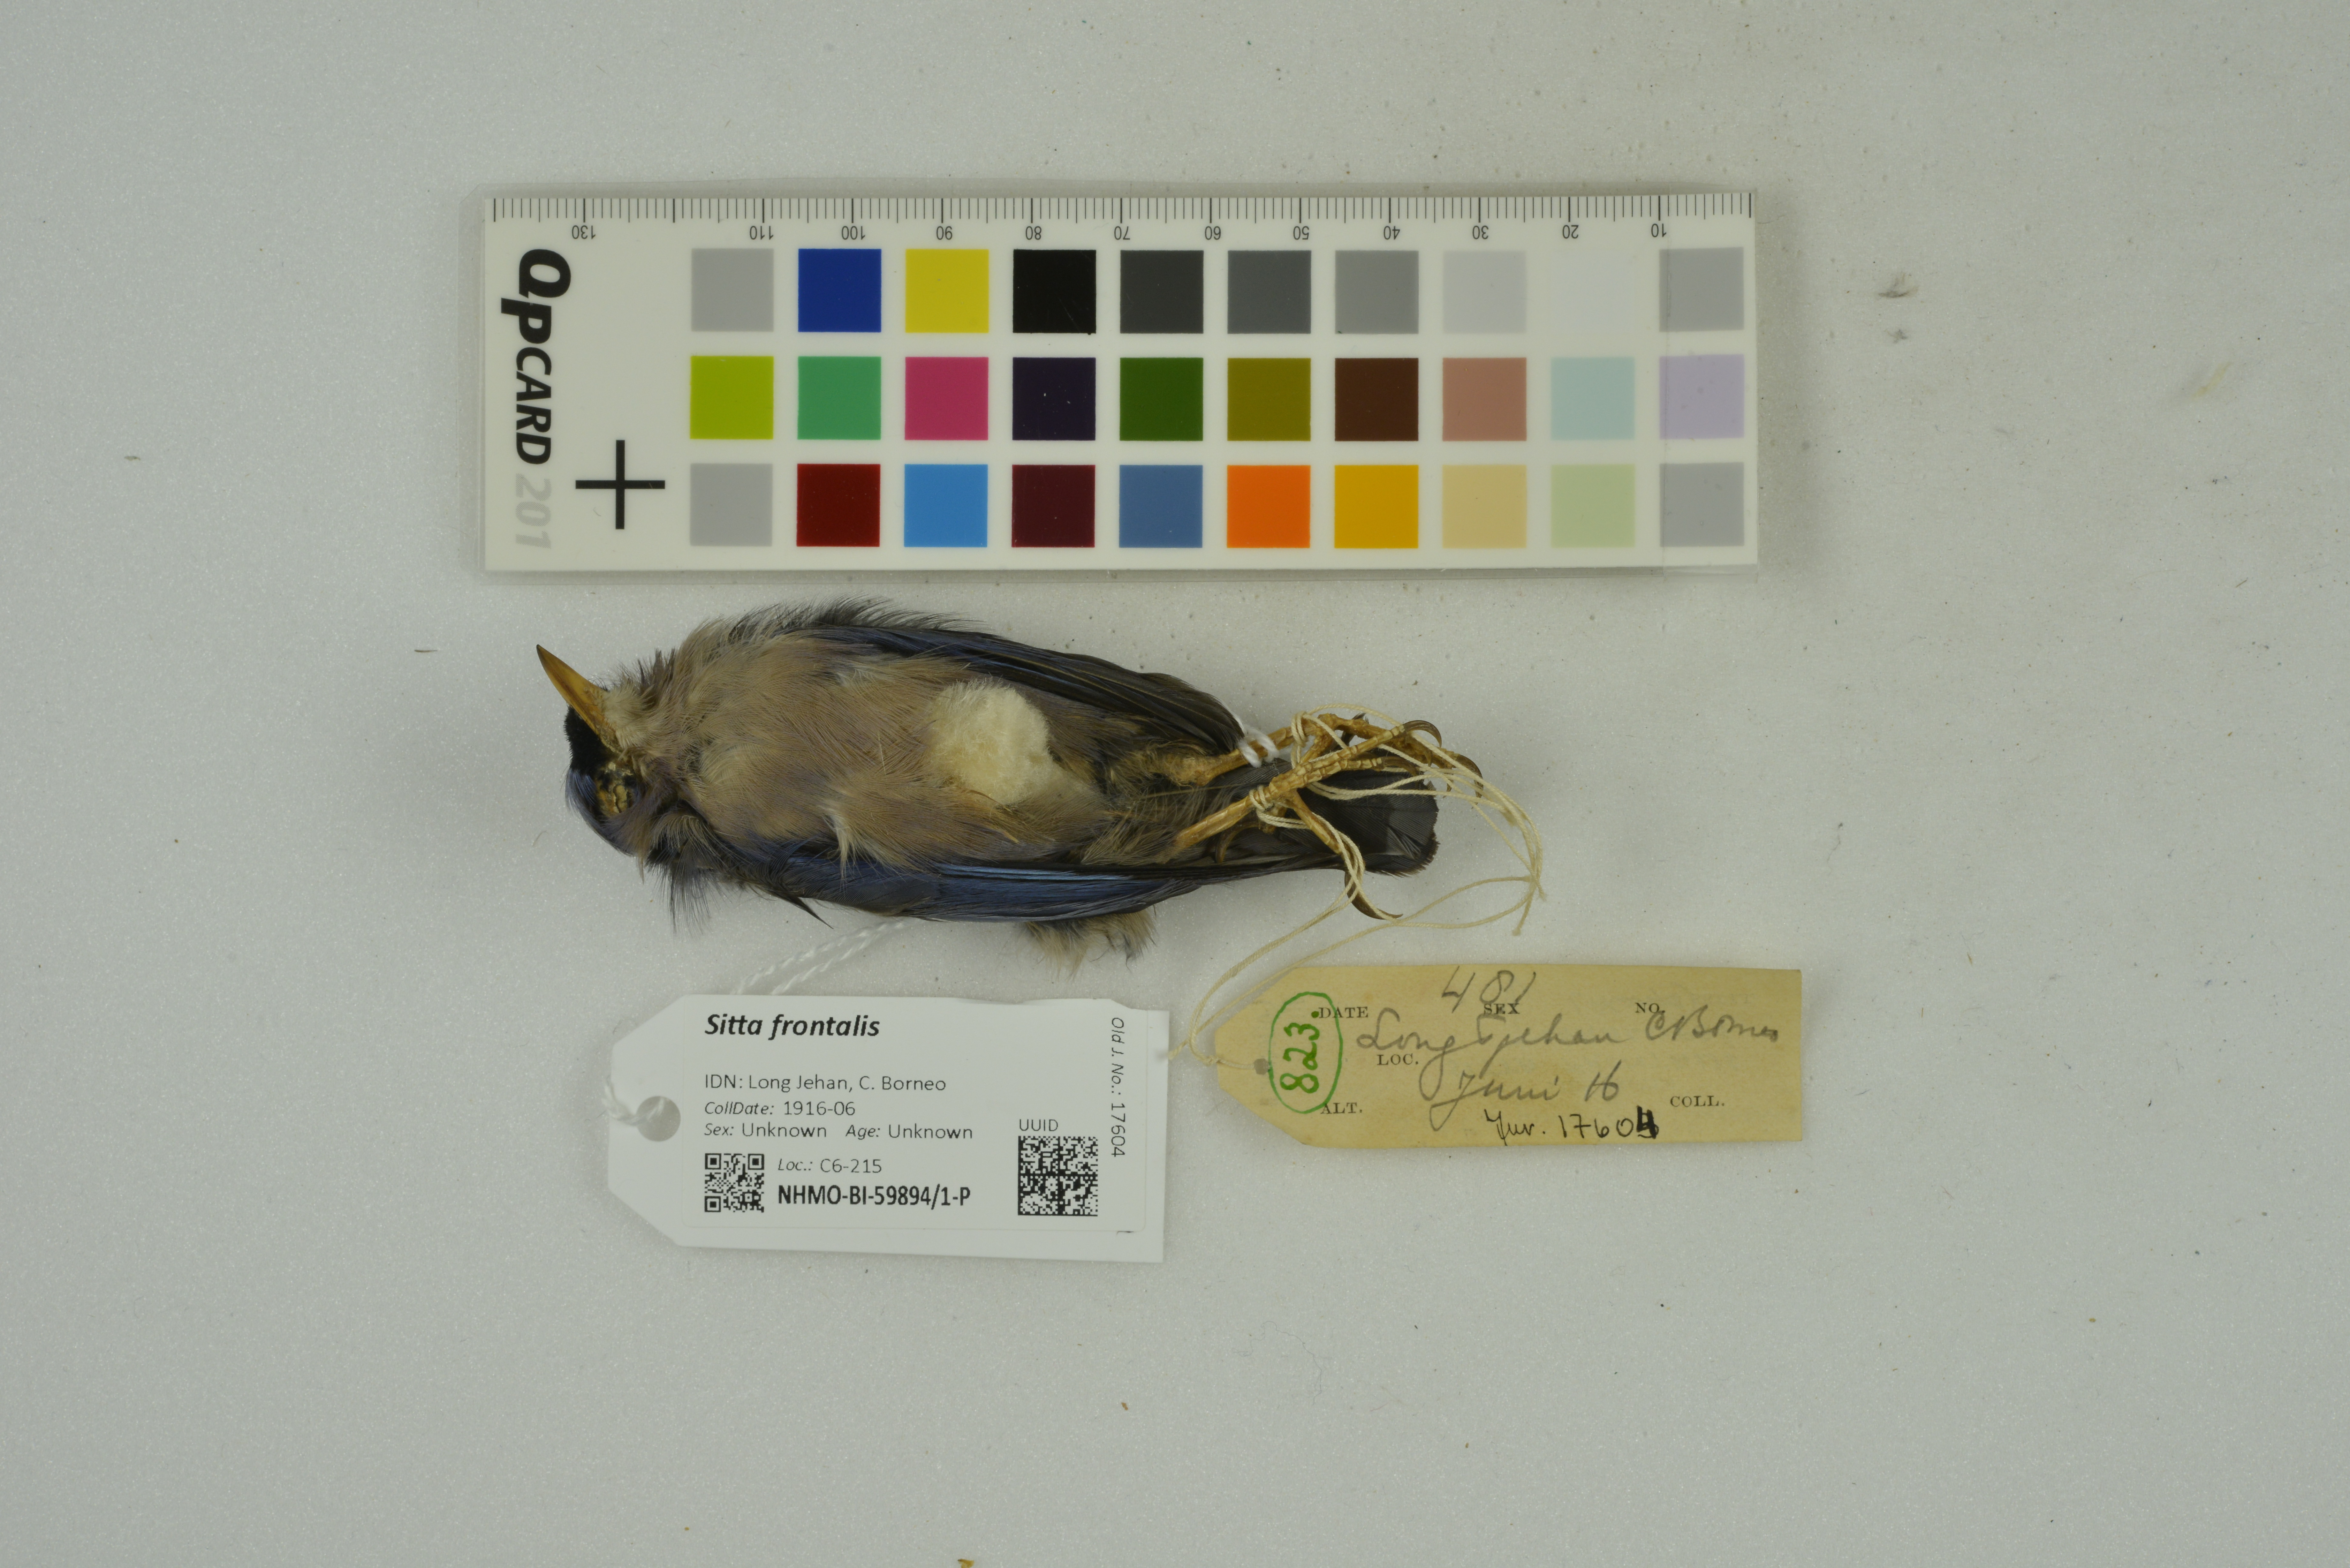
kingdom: Animalia
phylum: Chordata
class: Aves
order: Passeriformes
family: Sittidae
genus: Sitta
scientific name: Sitta frontalis
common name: Velvet-fronted nuthatch
